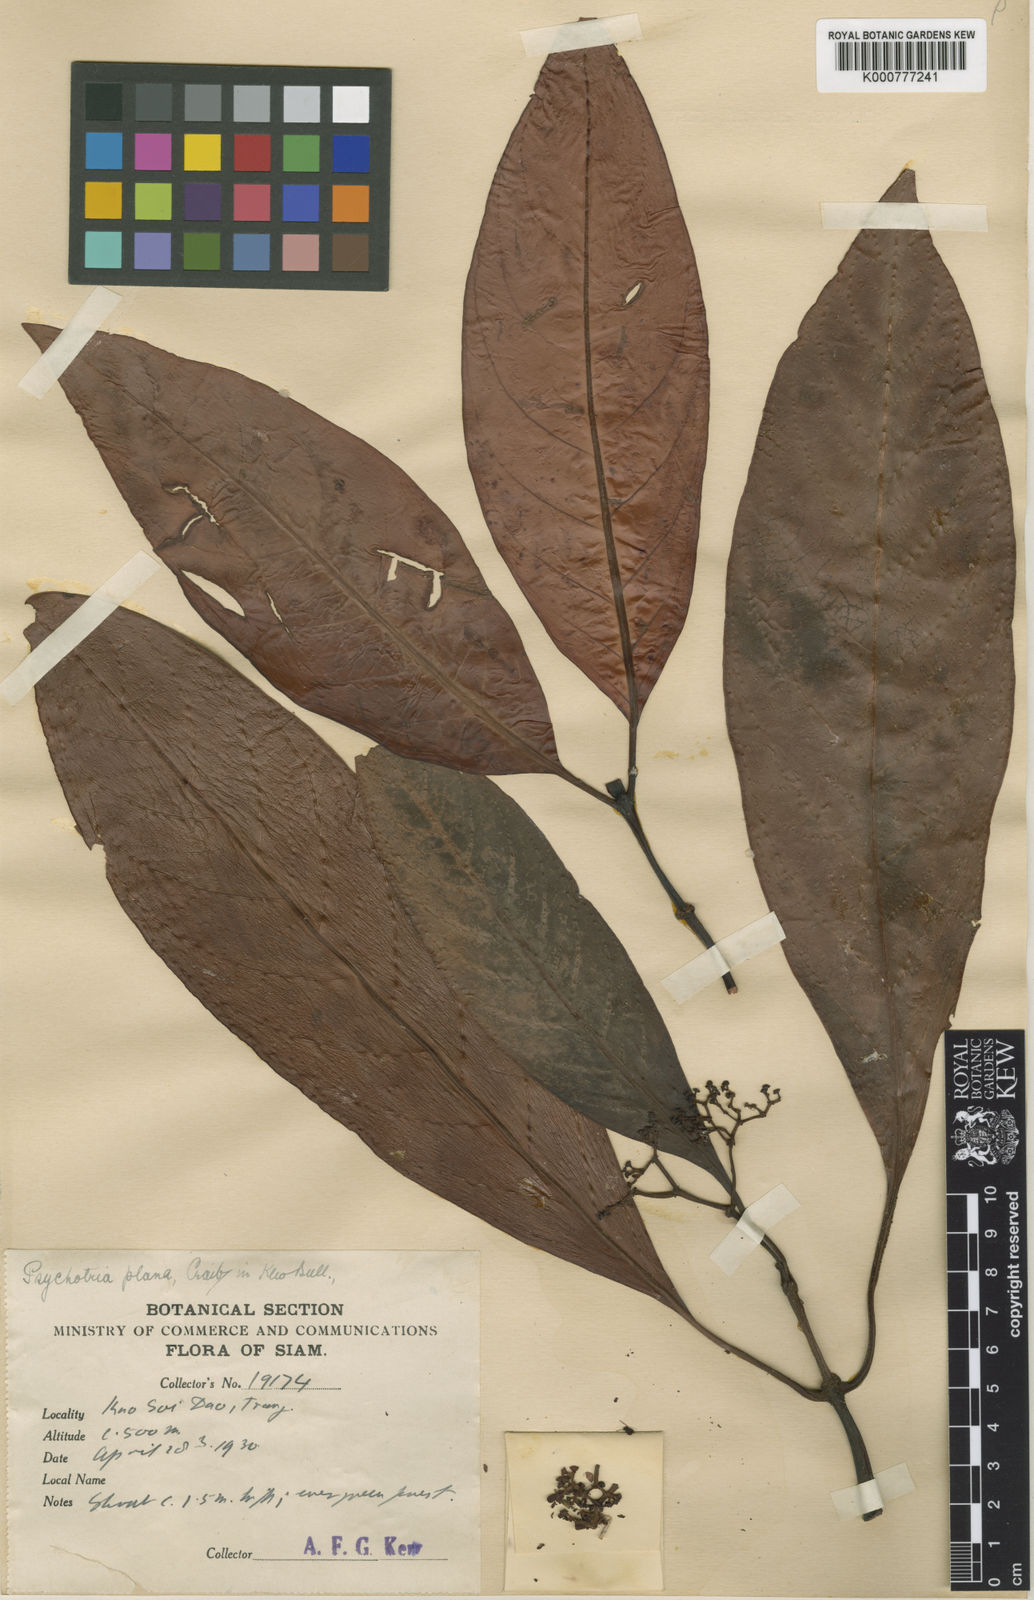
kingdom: Plantae
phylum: Tracheophyta
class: Magnoliopsida
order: Gentianales
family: Rubiaceae
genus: Psychotria
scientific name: Psychotria plana
